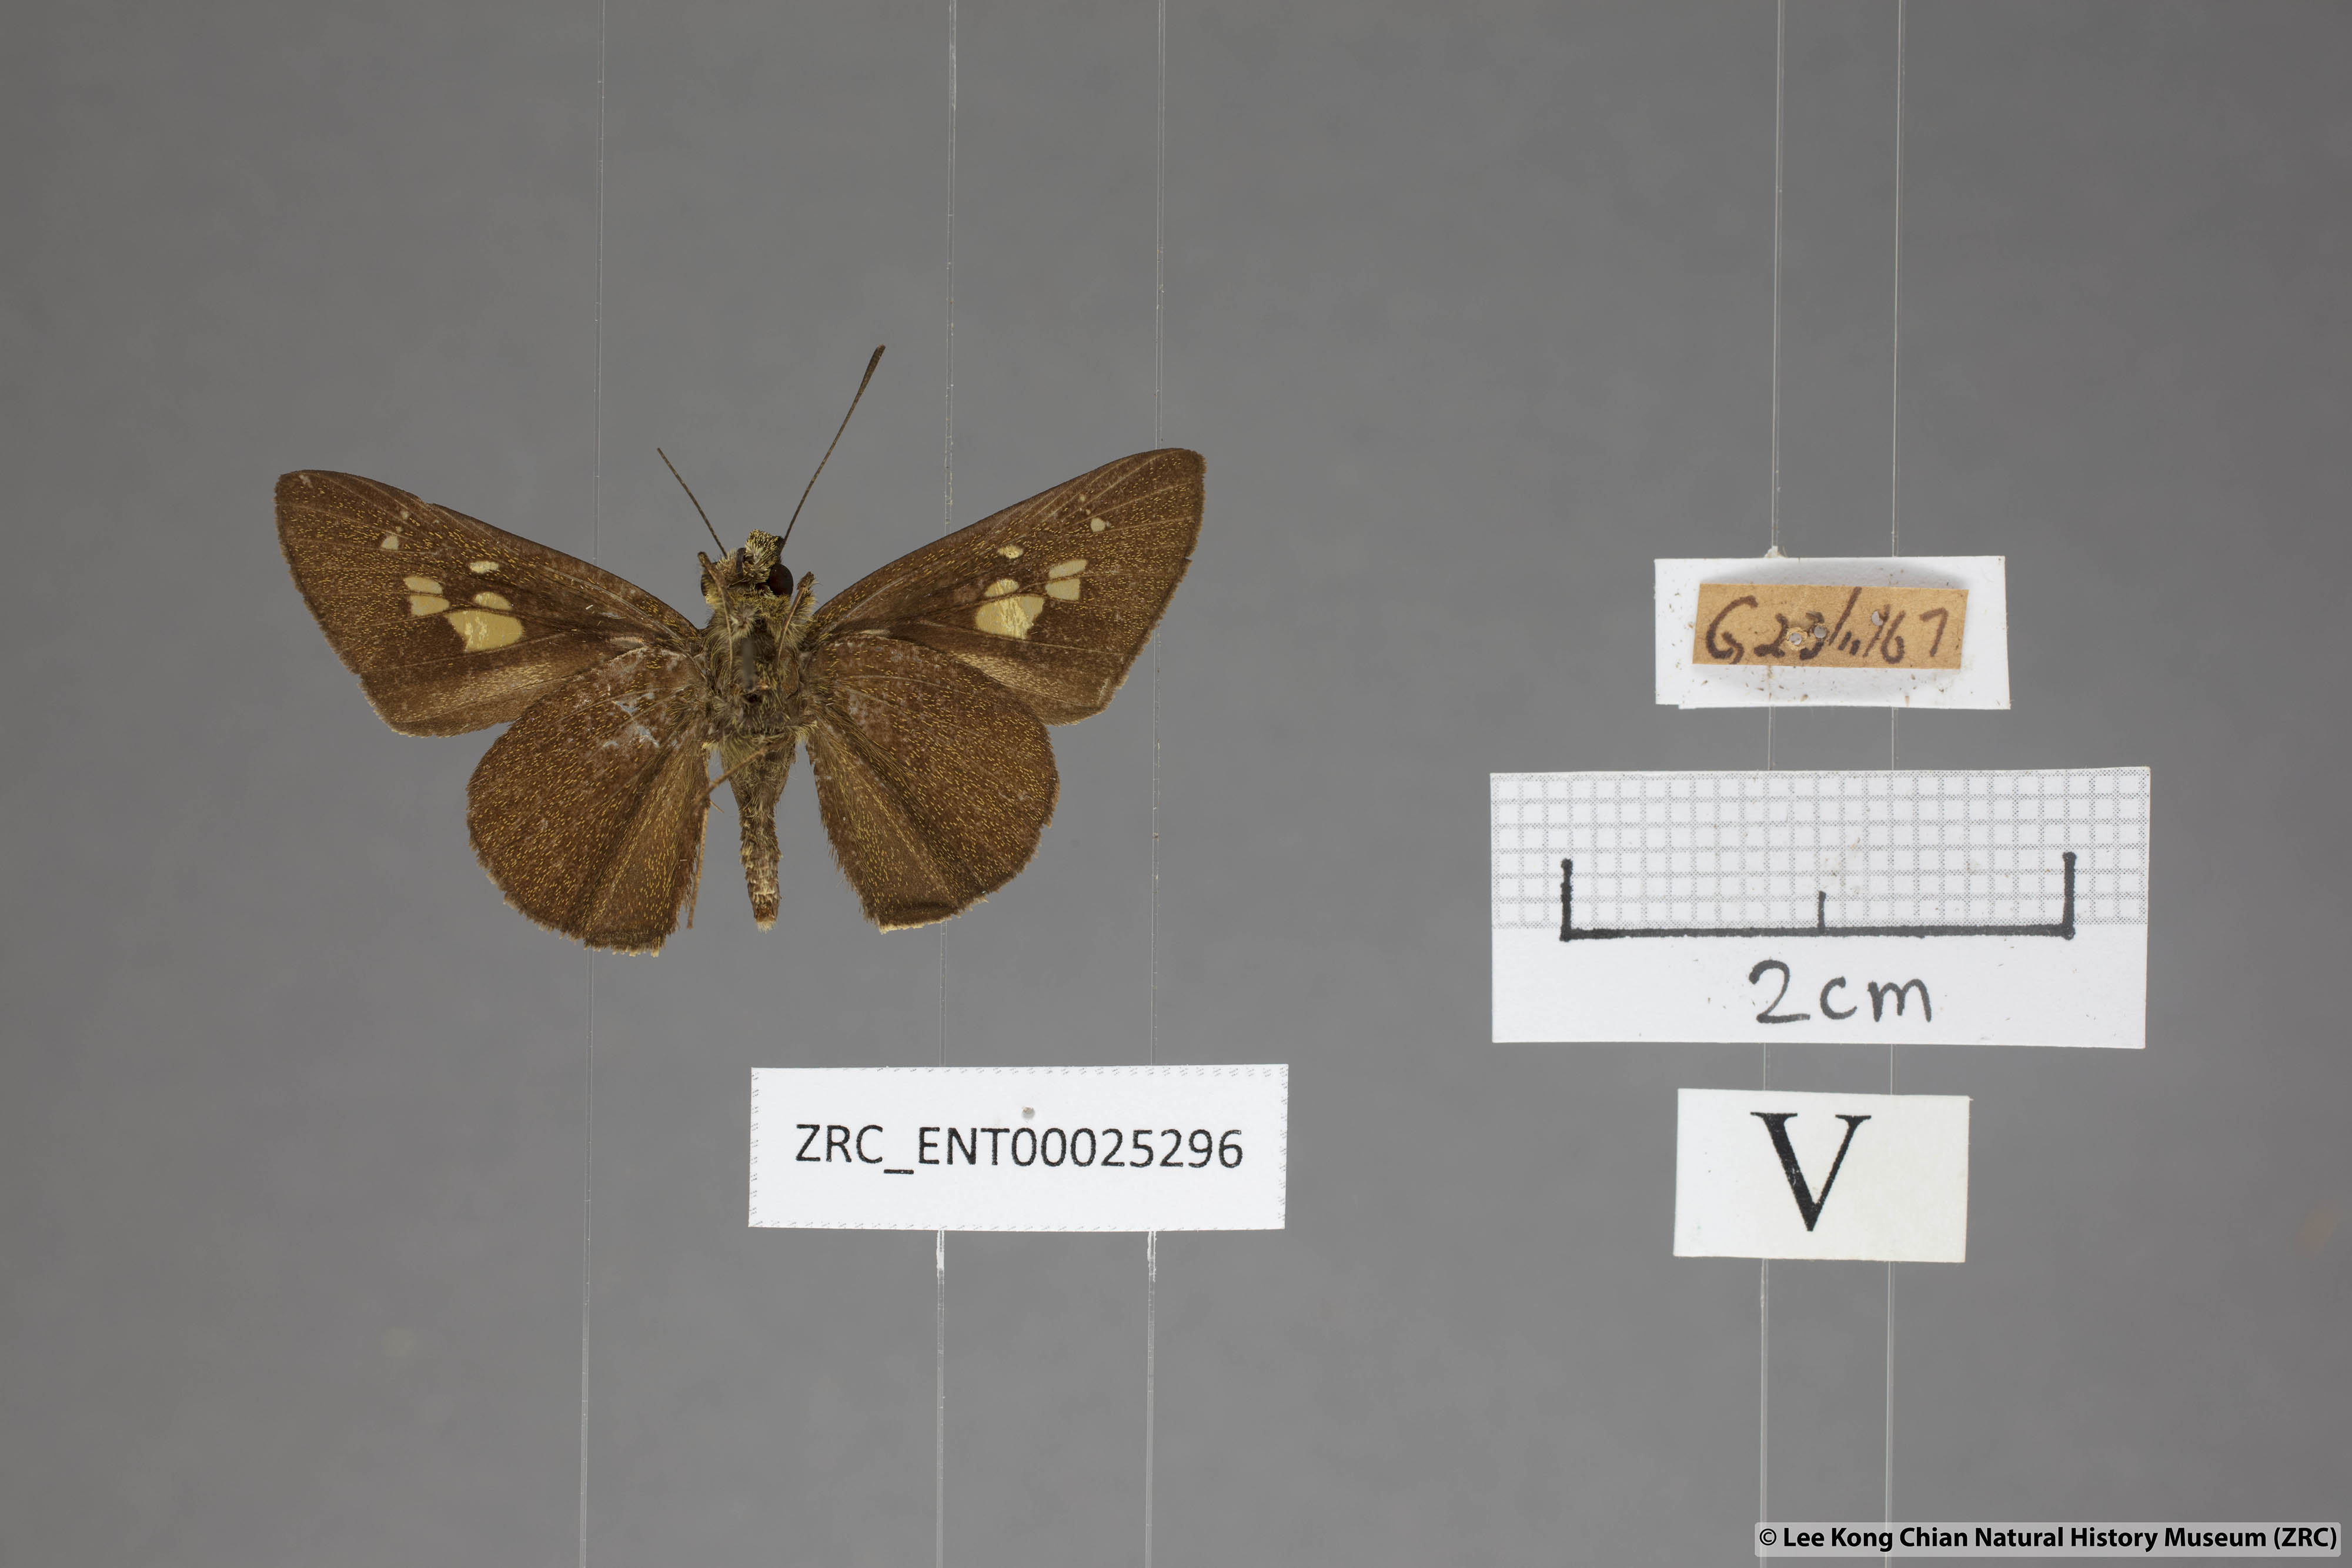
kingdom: Animalia
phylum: Arthropoda
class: Insecta
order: Lepidoptera
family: Hesperiidae
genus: Pemara
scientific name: Pemara pugnans
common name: Pugnacious lancer
